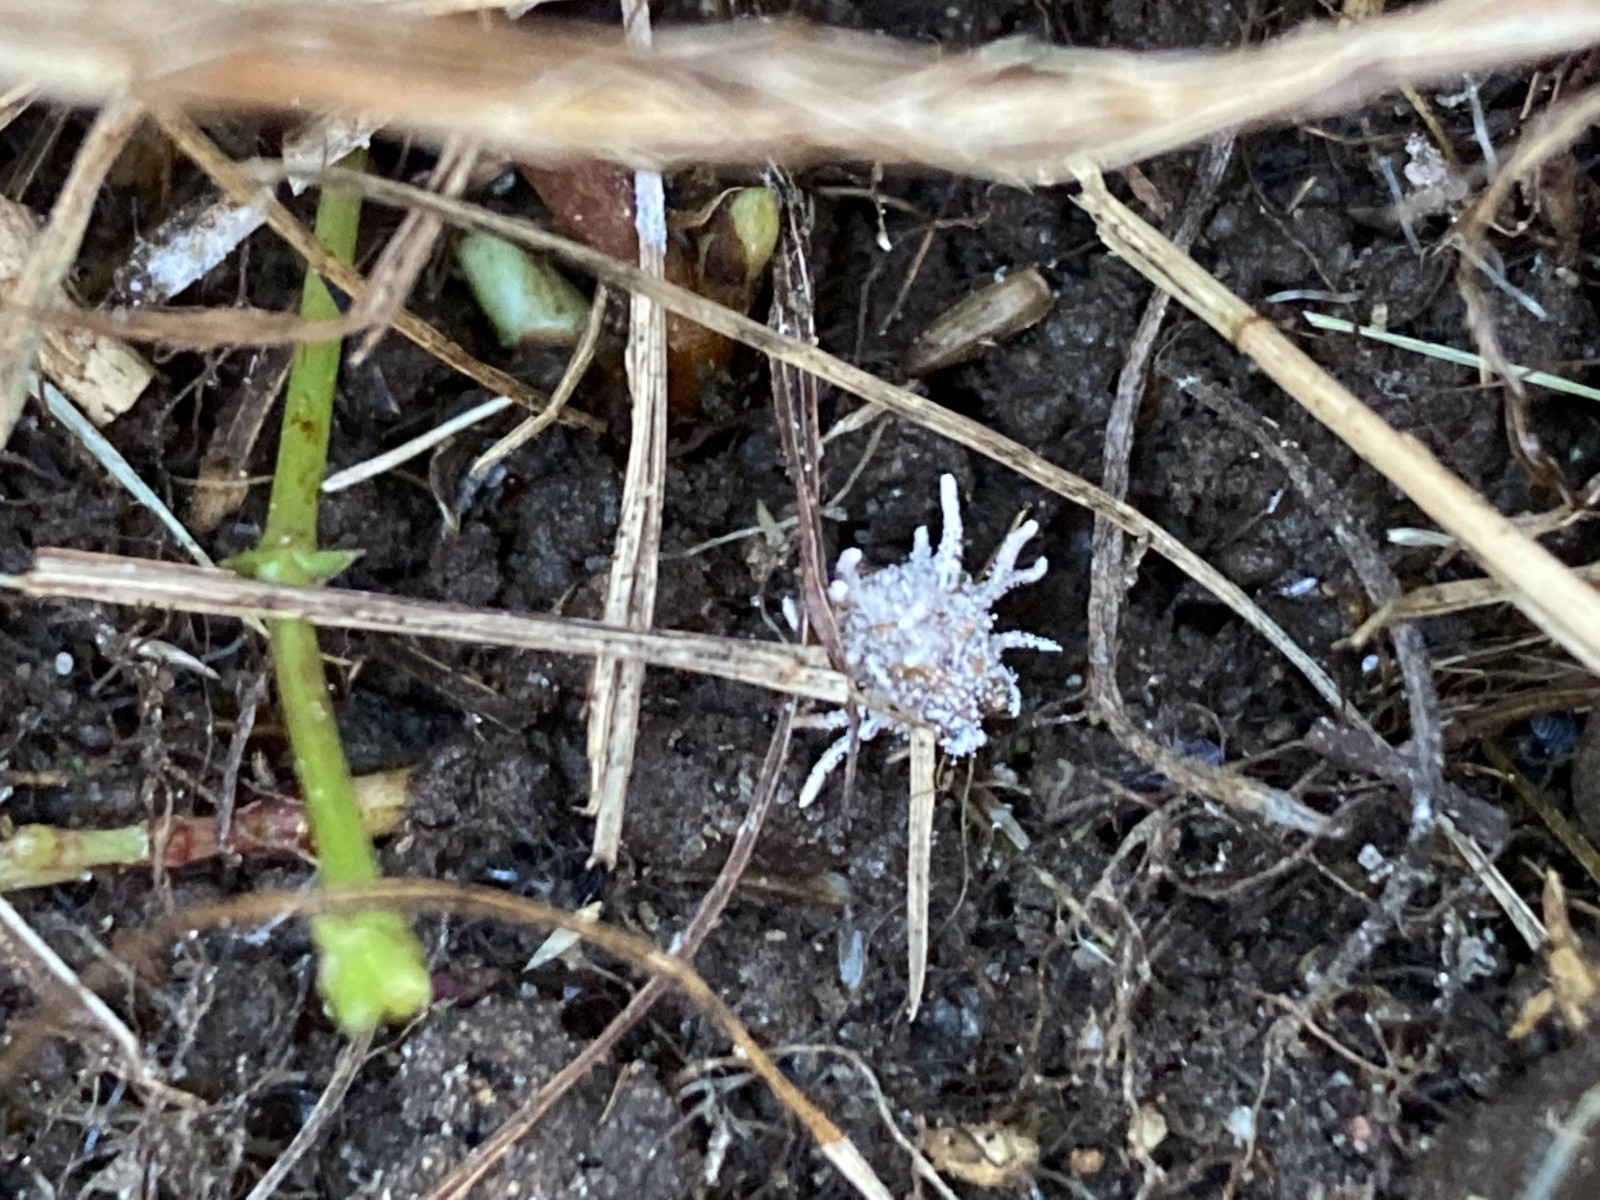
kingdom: Fungi
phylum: Ascomycota
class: Sordariomycetes
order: Hypocreales
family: Cordycipitaceae
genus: Gibellula
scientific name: Gibellula
